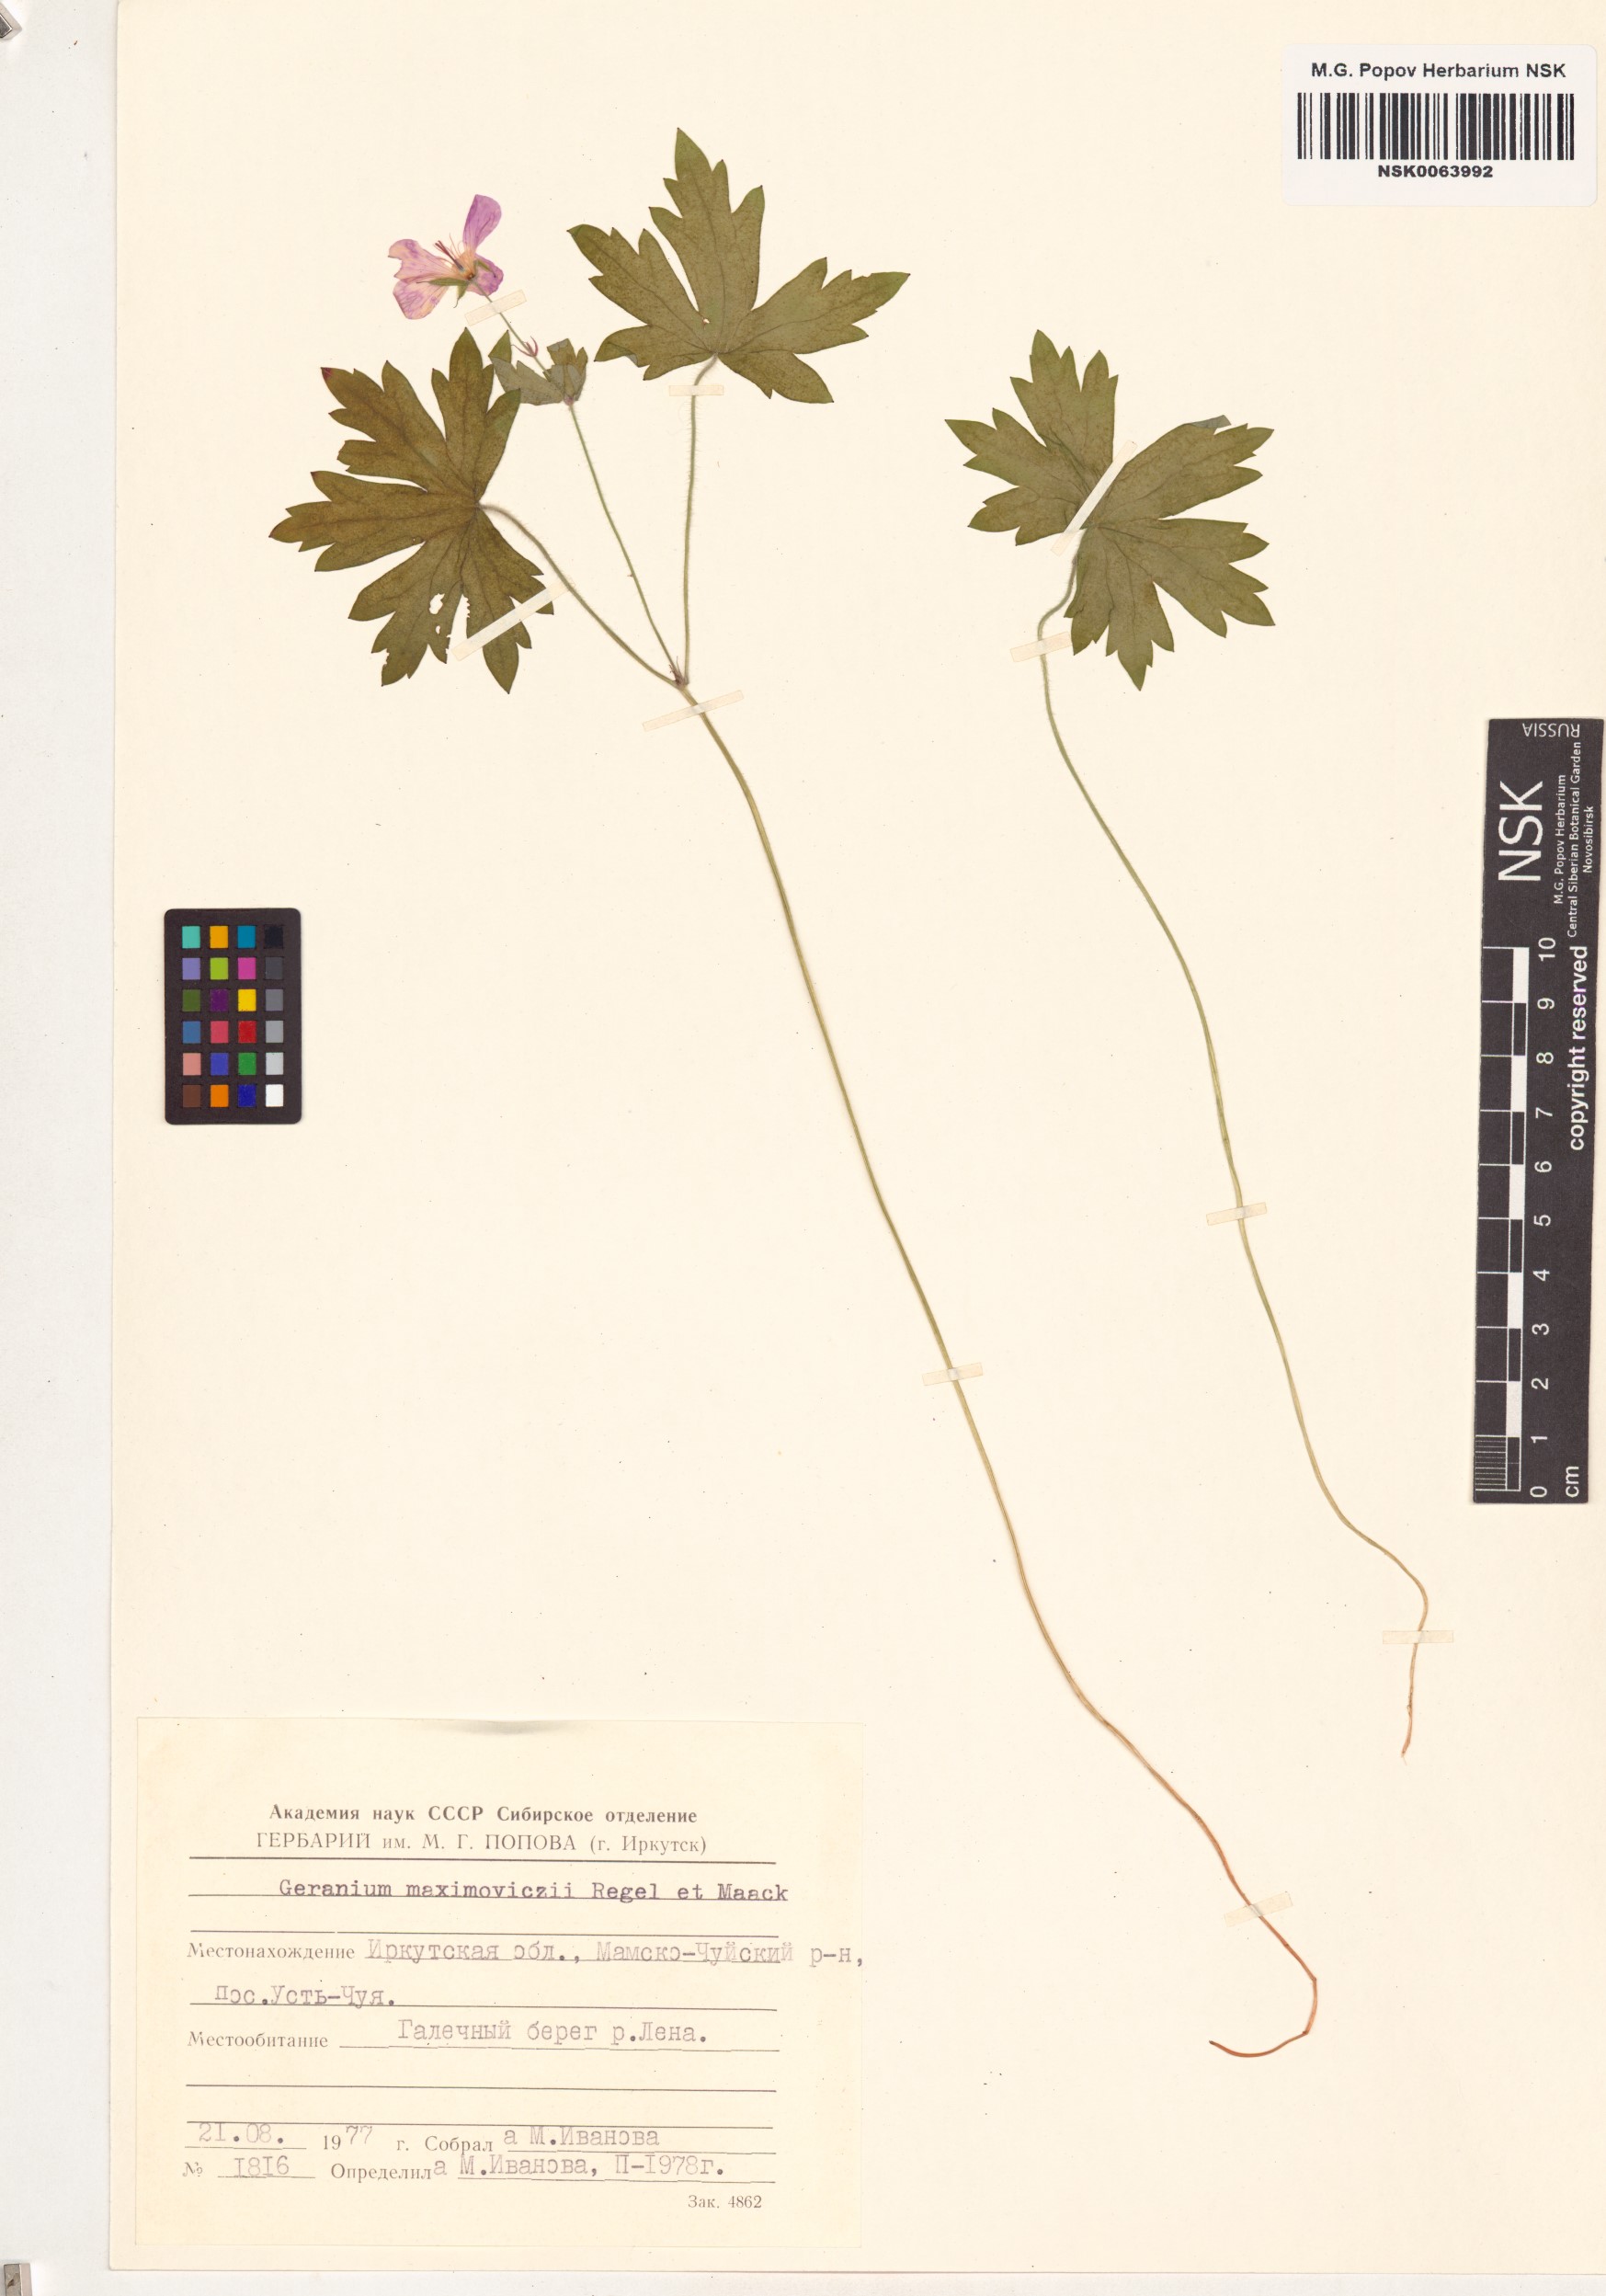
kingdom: Plantae
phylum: Tracheophyta
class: Magnoliopsida
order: Geraniales
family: Geraniaceae
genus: Geranium
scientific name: Geranium maximowiczii
